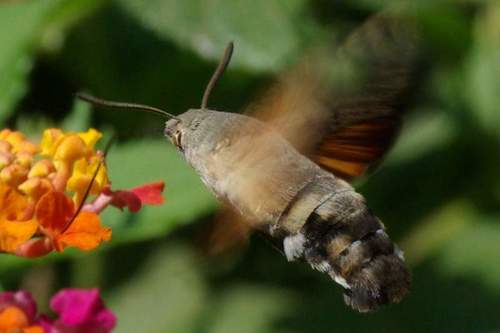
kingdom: Animalia
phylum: Arthropoda
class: Insecta
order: Lepidoptera
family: Sphingidae
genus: Macroglossum
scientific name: Macroglossum stellatarum
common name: Humming-bird hawk-moth
